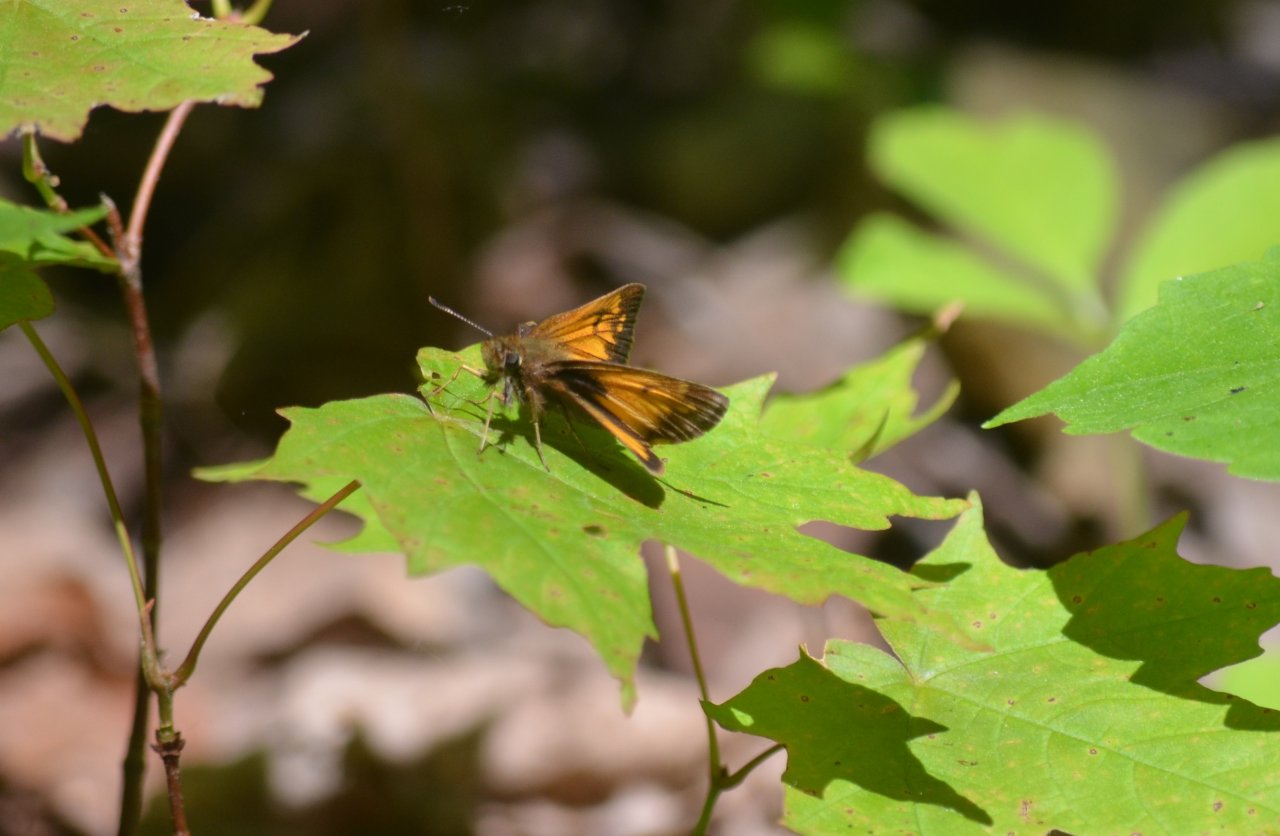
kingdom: Animalia
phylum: Arthropoda
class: Insecta
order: Lepidoptera
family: Hesperiidae
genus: Lon
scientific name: Lon hobomok
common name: Hobomok Skipper
